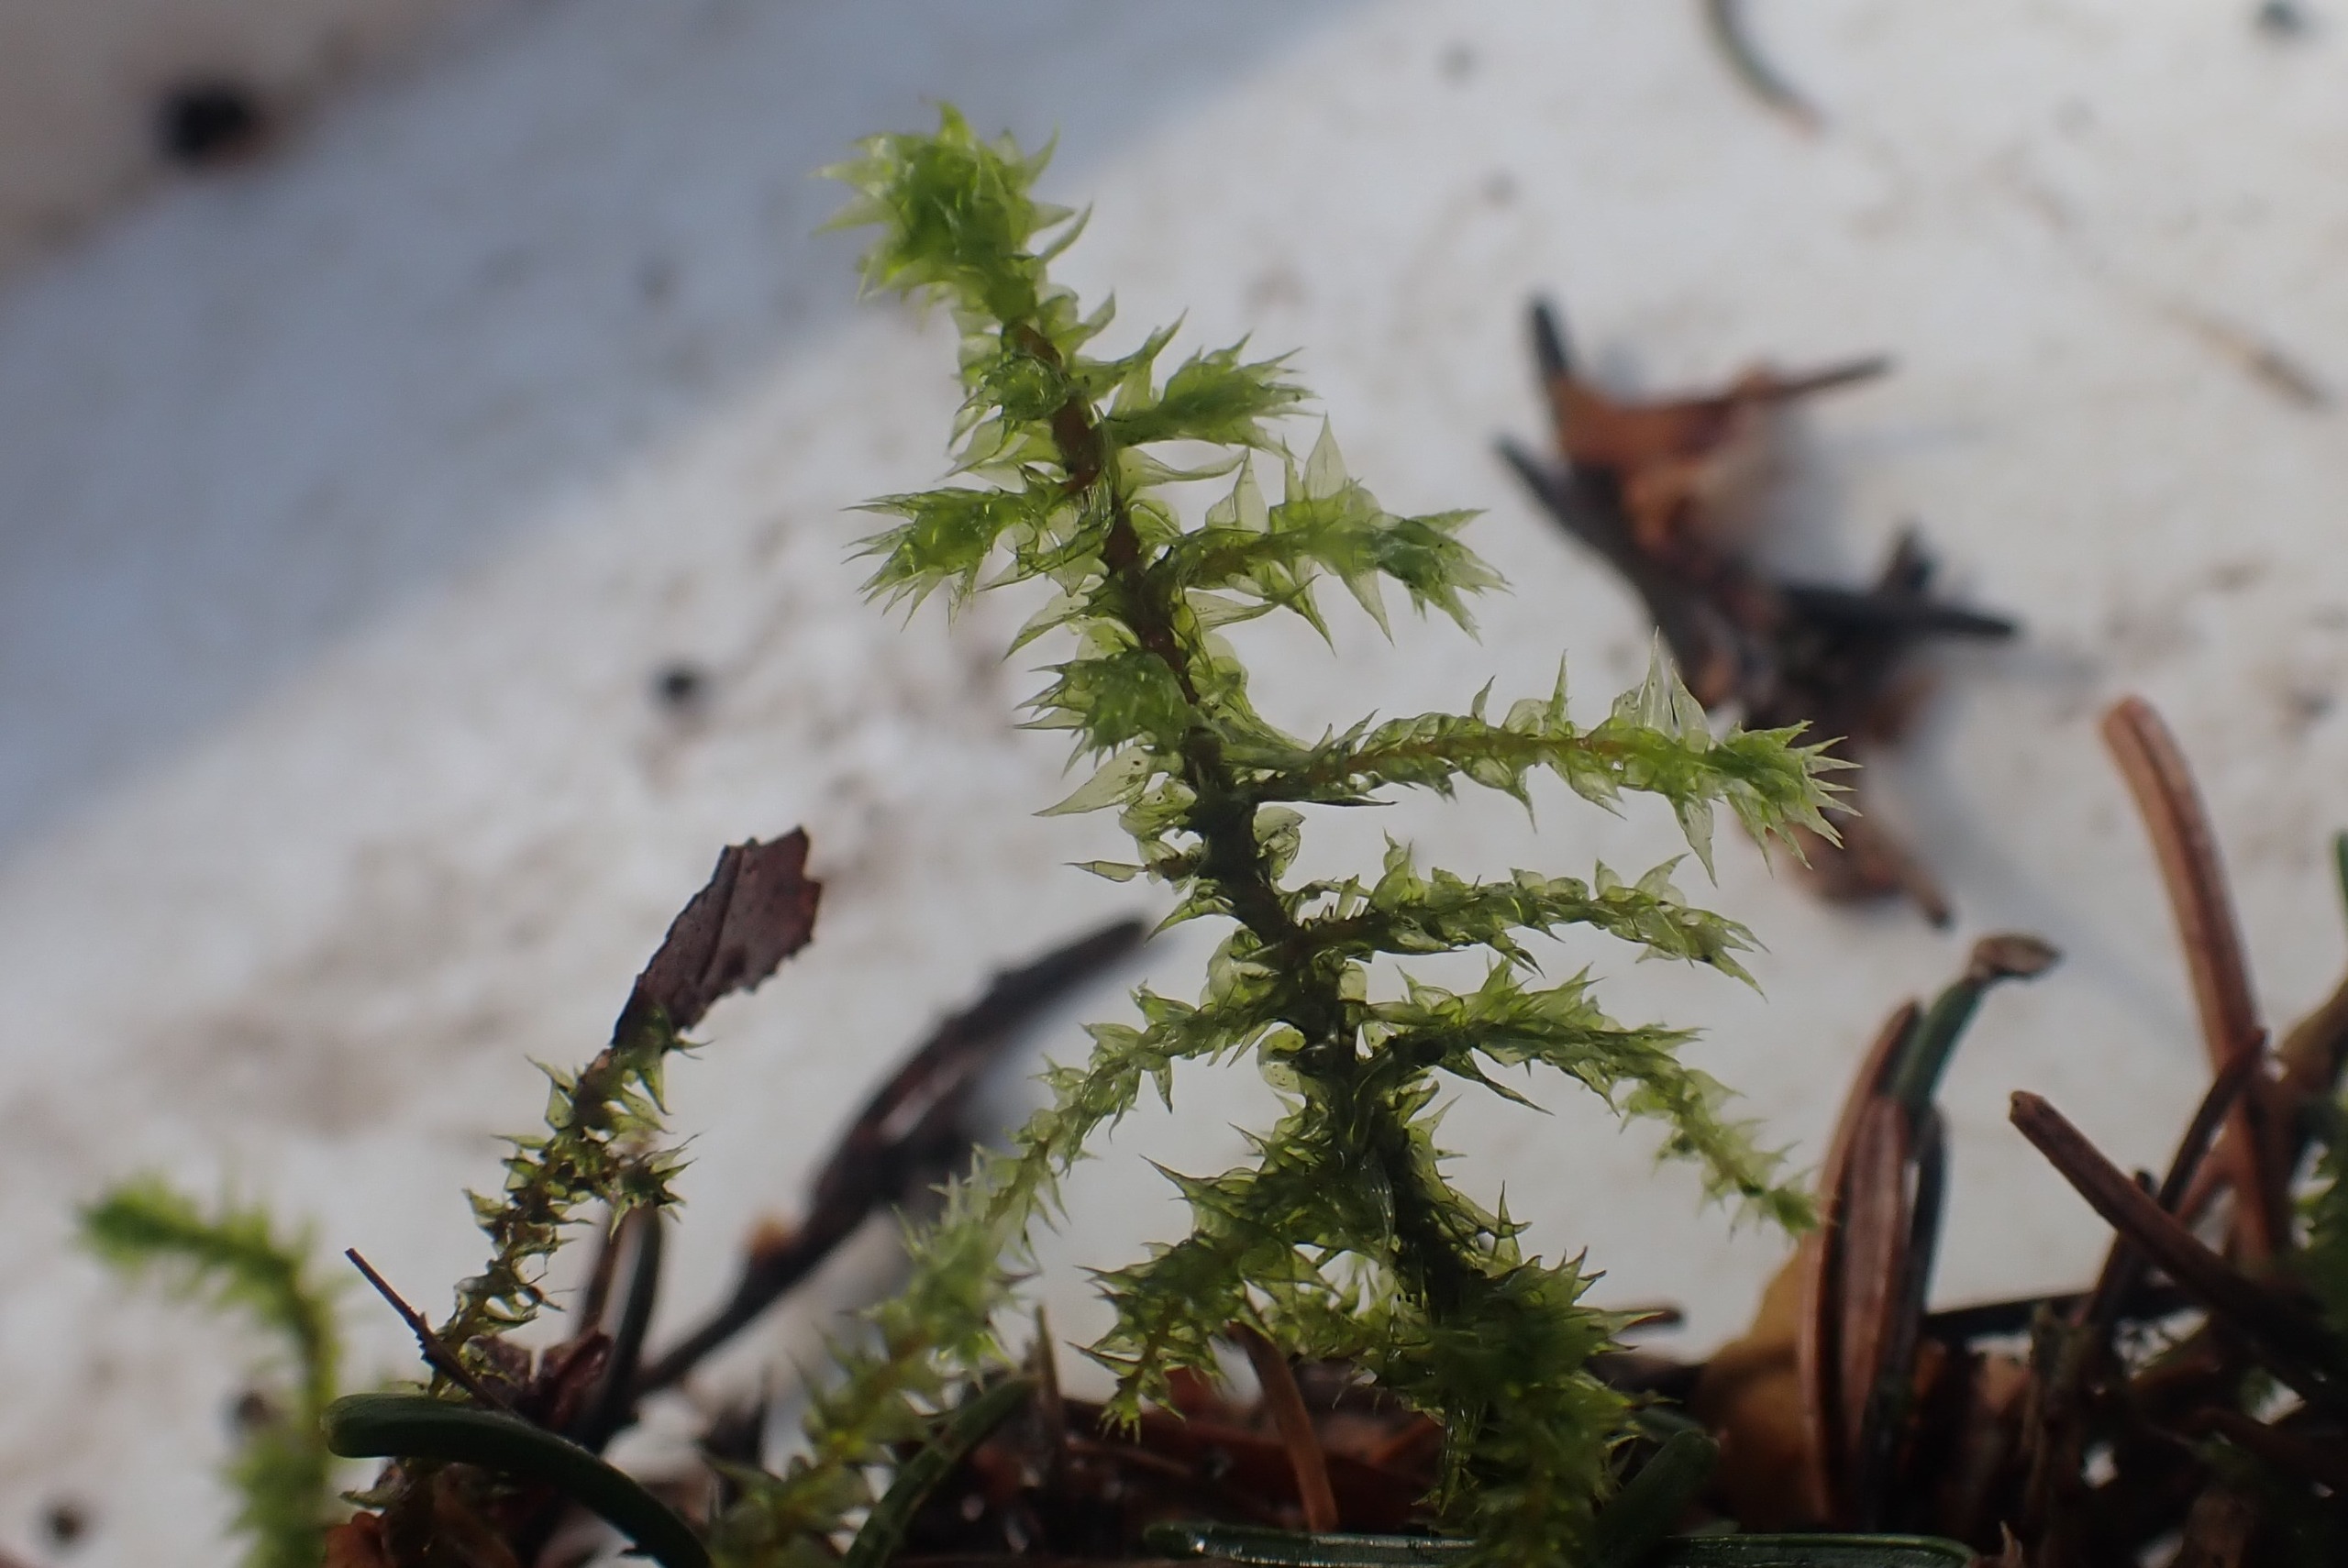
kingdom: Plantae
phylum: Bryophyta
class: Bryopsida
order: Hypnales
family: Hylocomiaceae
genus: Hylocomiadelphus
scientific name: Hylocomiadelphus triquetrus
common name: Stor kransemos
